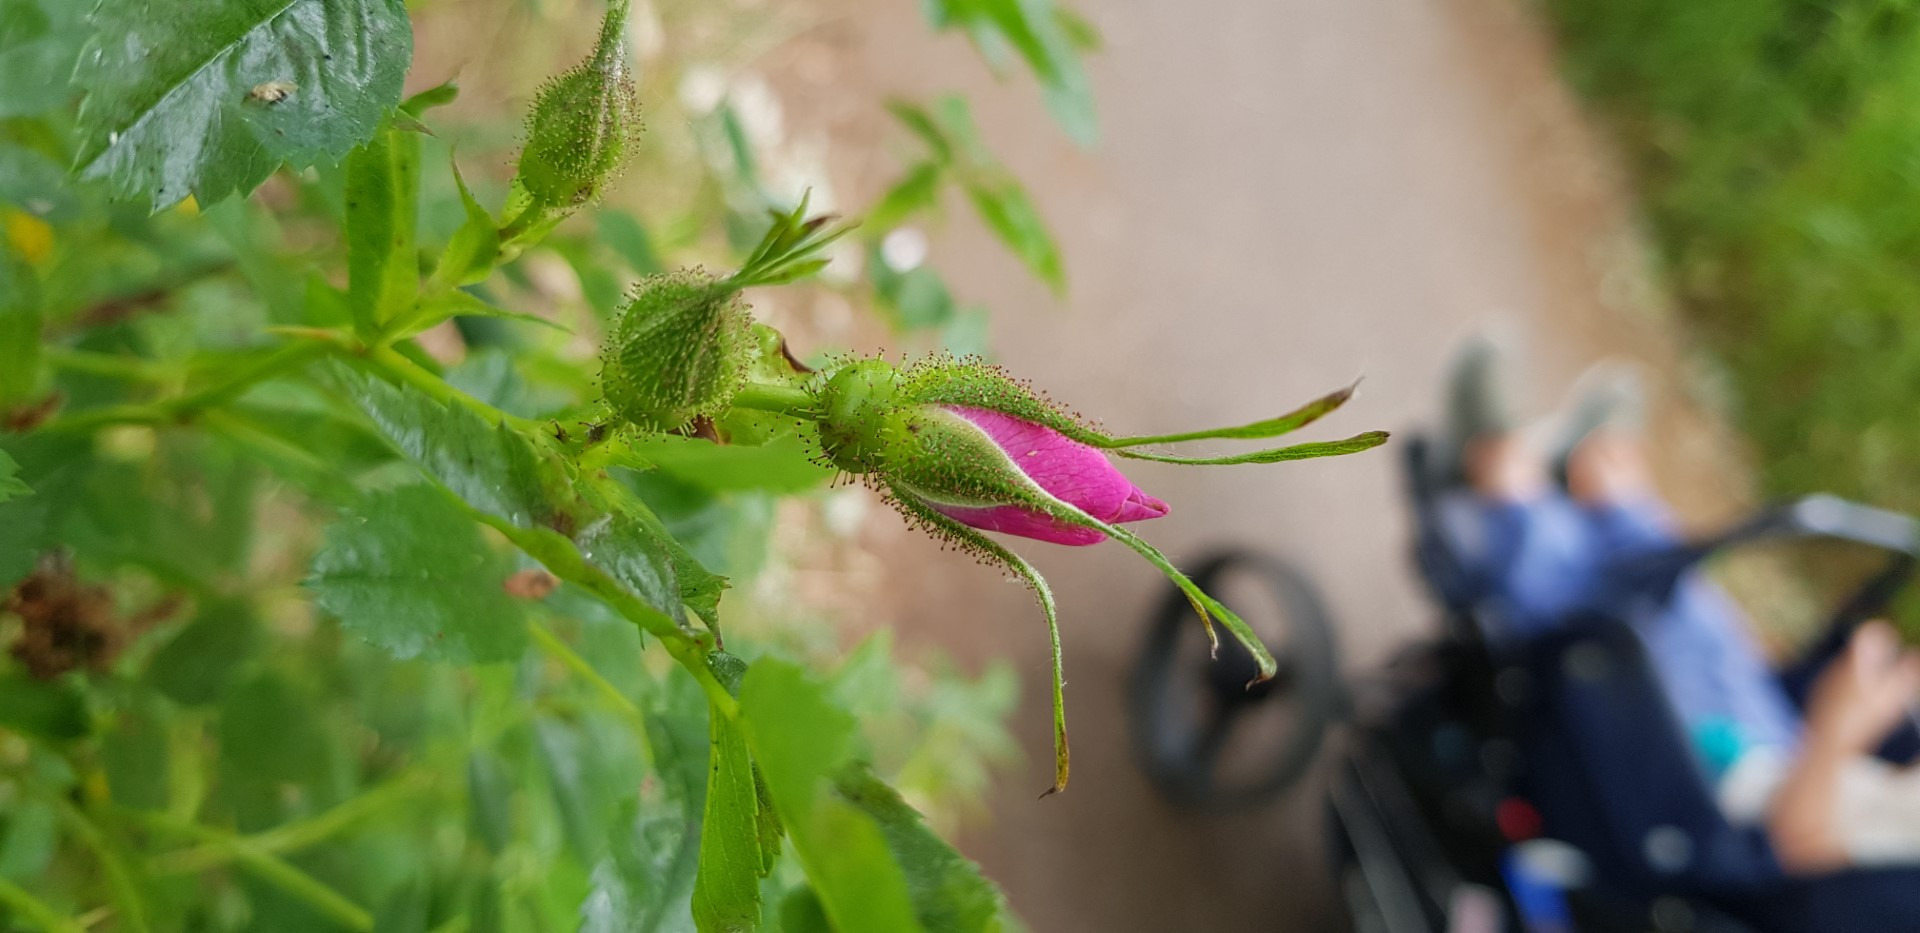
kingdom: Plantae
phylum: Tracheophyta
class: Magnoliopsida
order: Rosales
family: Rosaceae
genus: Rosa
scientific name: Rosa carolina
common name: Glansbladet rose
